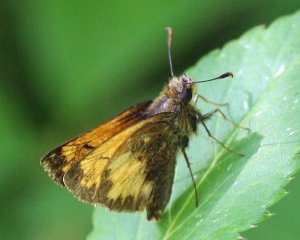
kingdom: Animalia
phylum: Arthropoda
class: Insecta
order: Lepidoptera
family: Hesperiidae
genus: Lon
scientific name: Lon hobomok
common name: Hobomok Skipper
